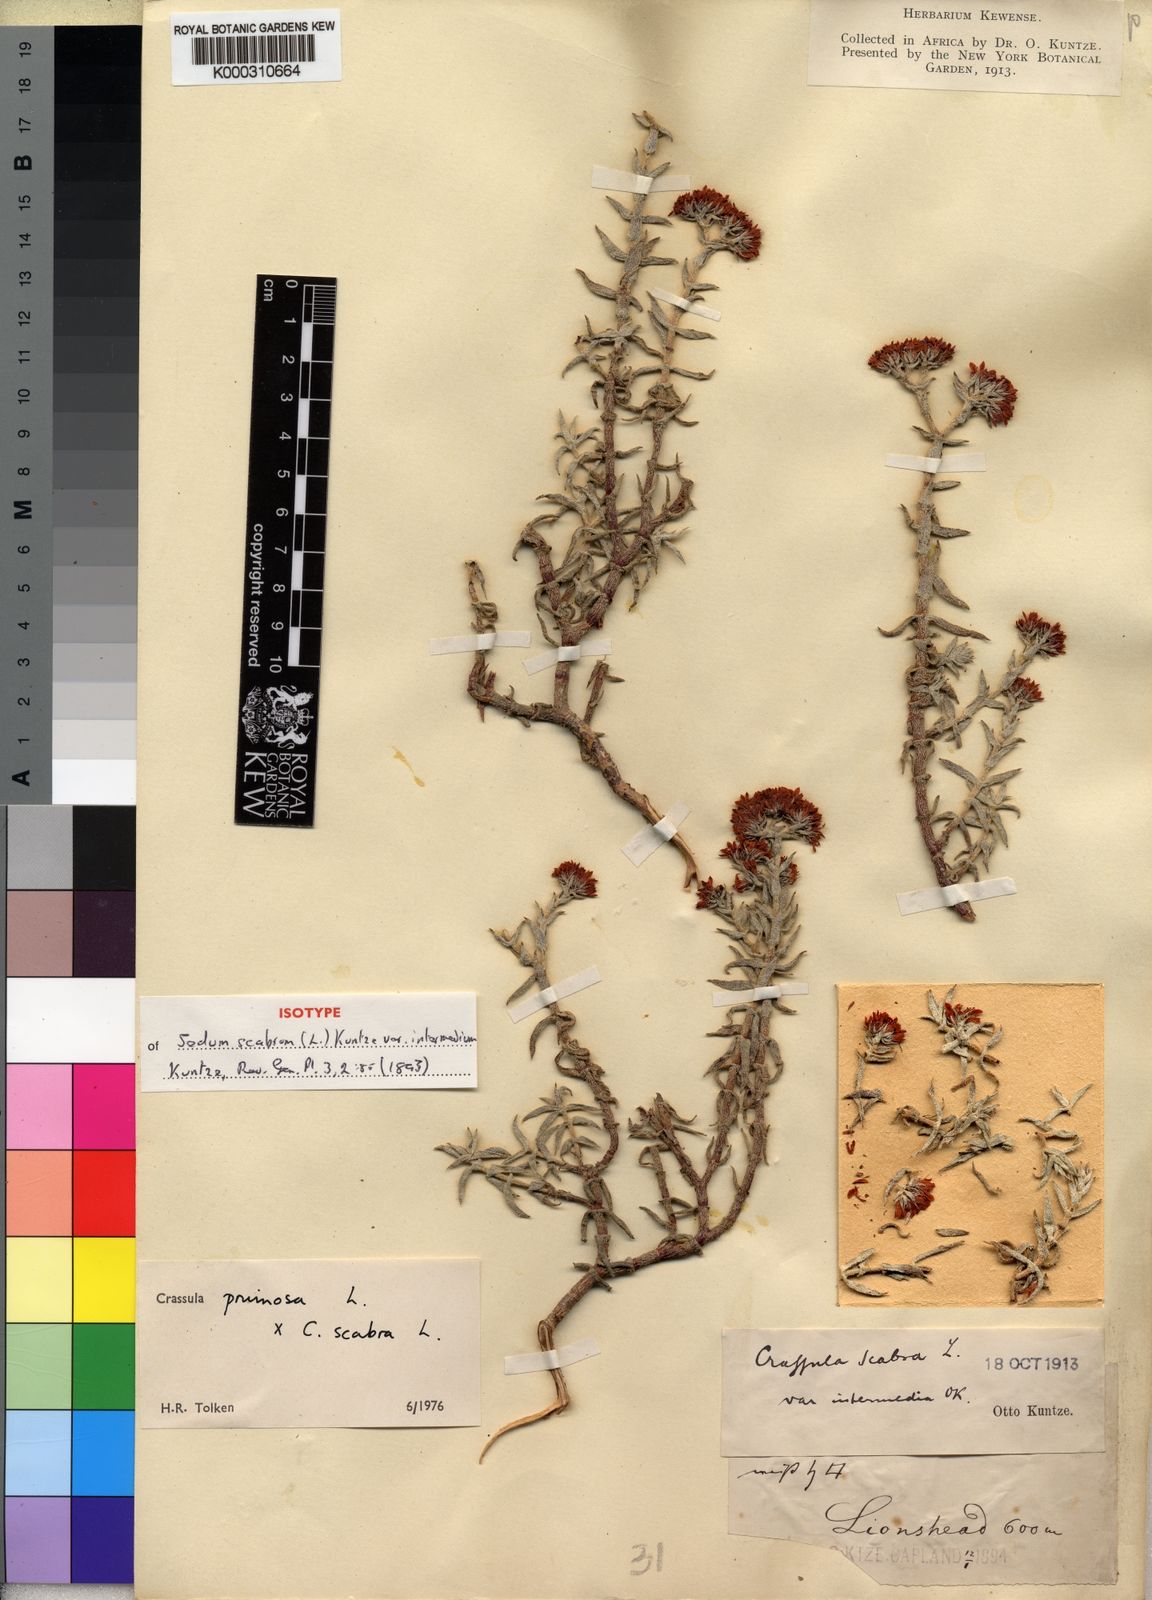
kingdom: Plantae
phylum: Tracheophyta
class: Magnoliopsida
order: Saxifragales
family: Crassulaceae
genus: Crassula
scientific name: Crassula pruinosa
